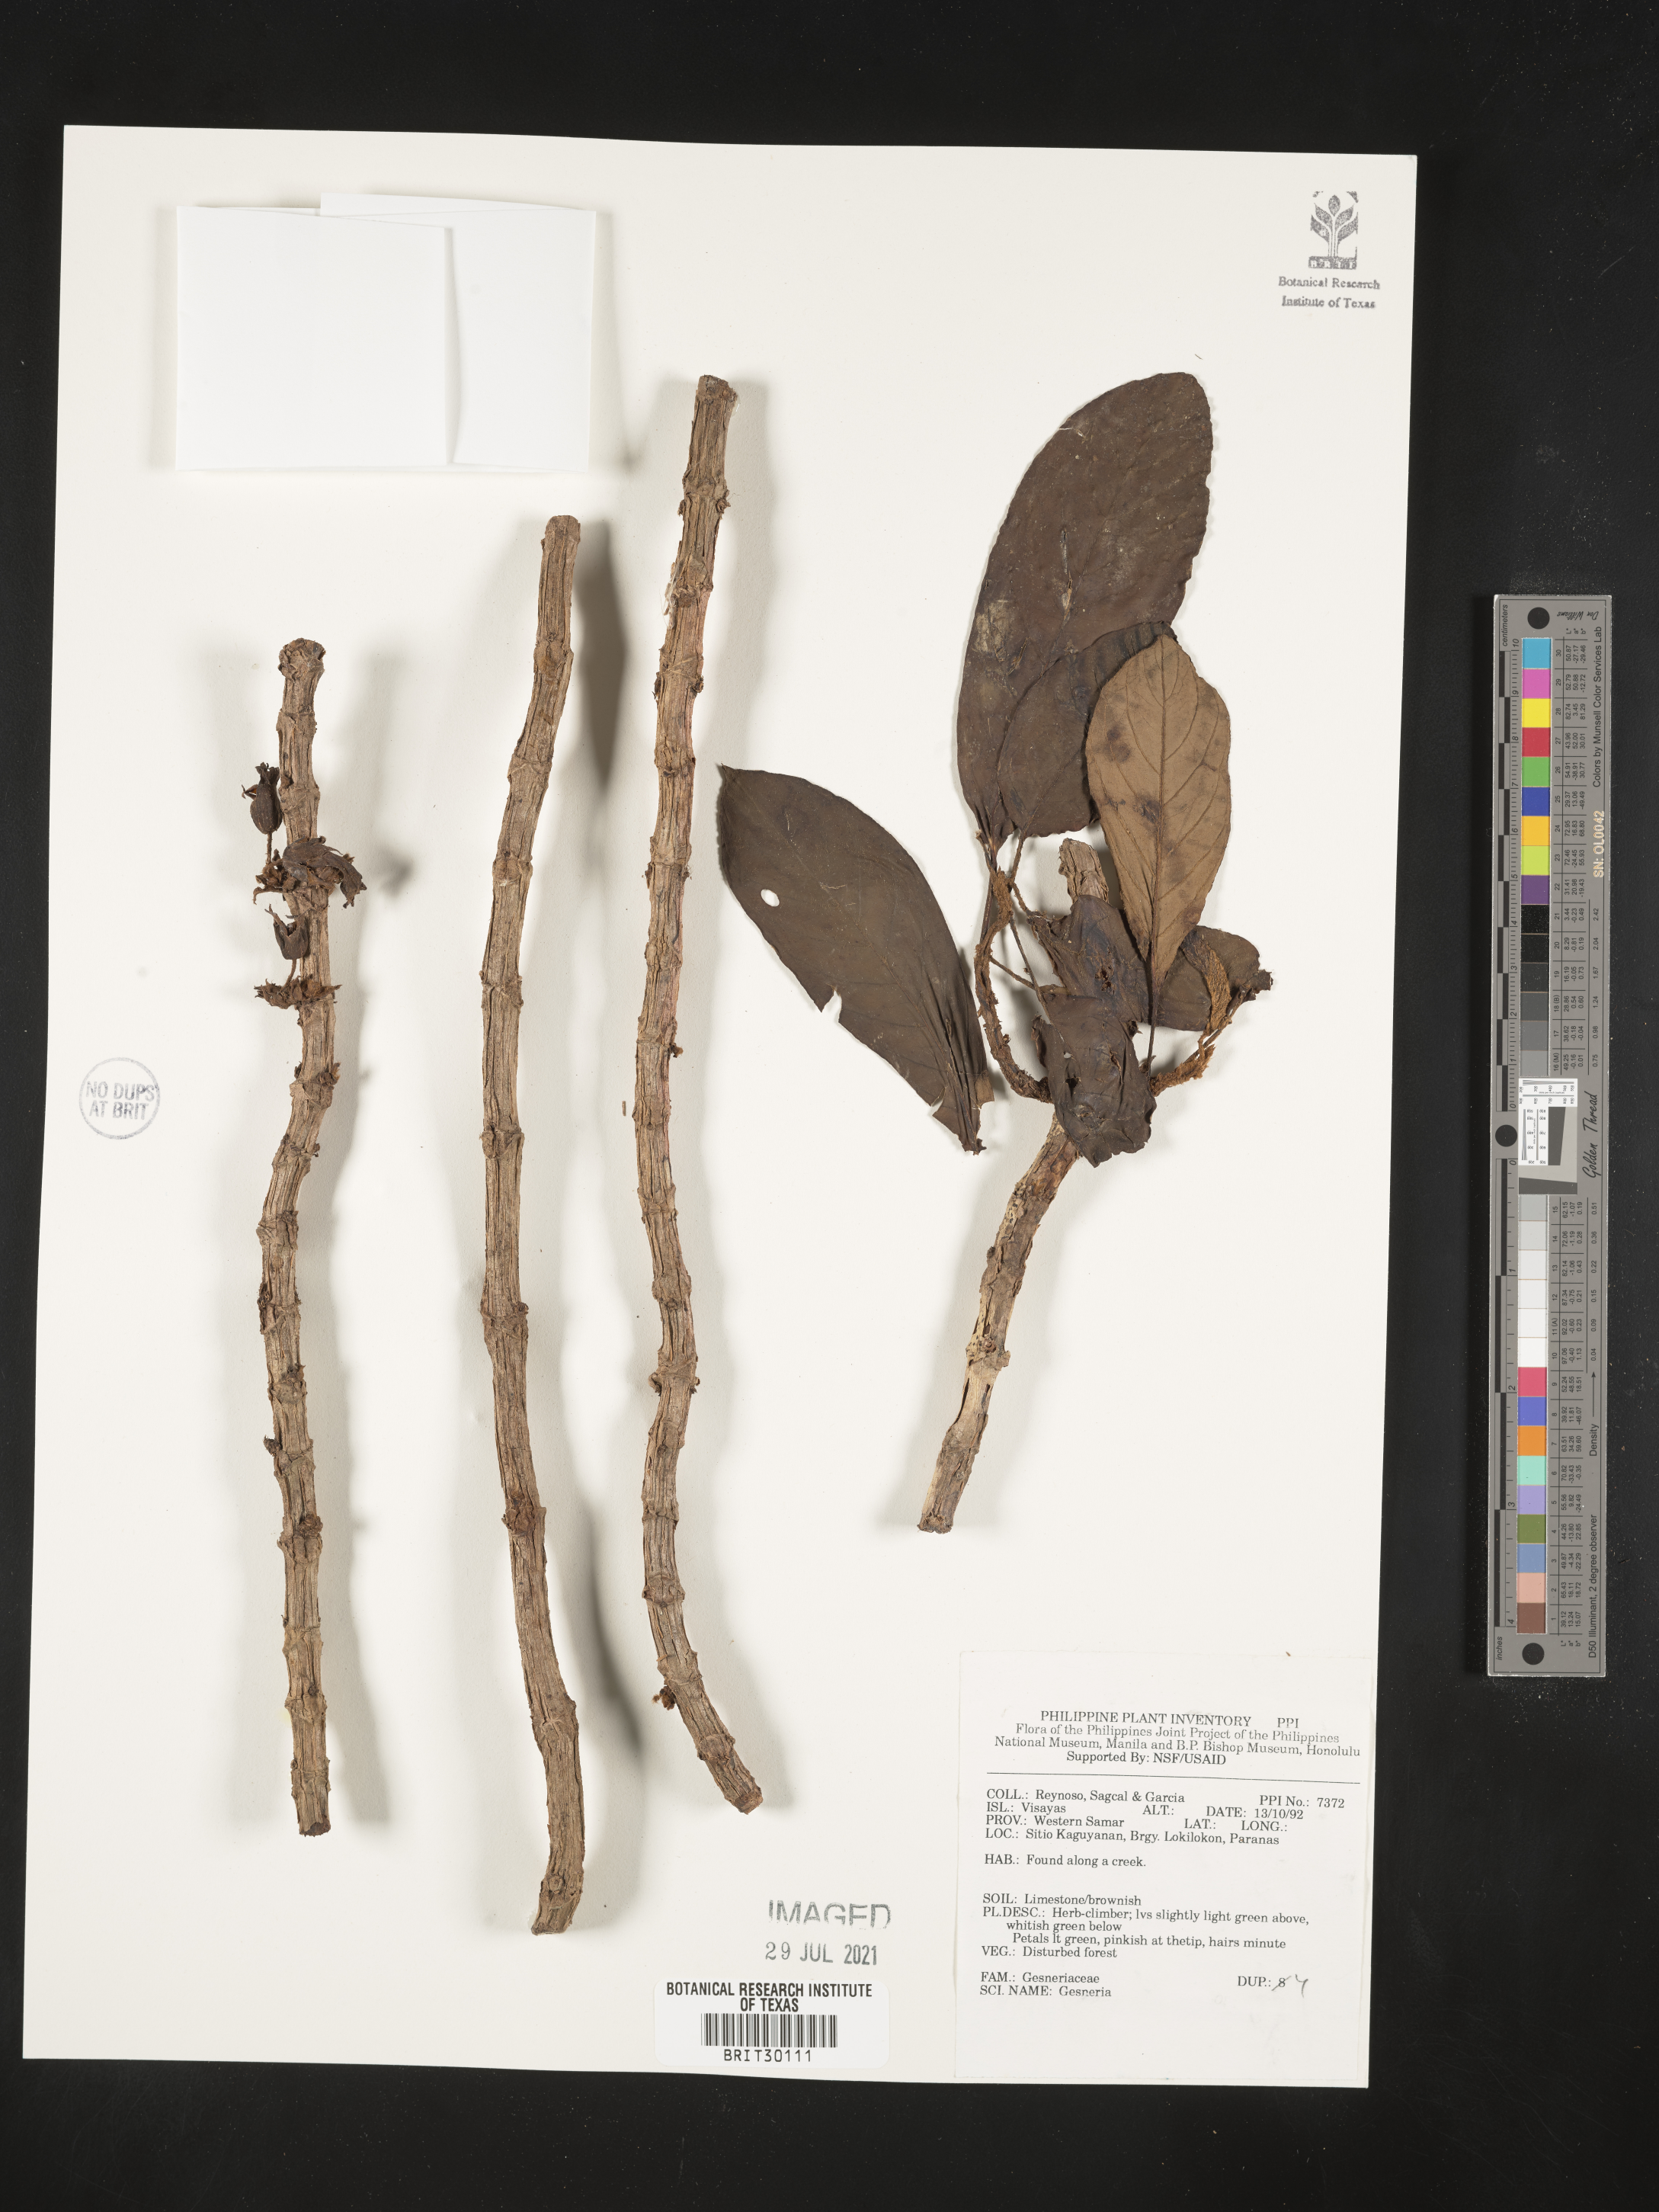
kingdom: Plantae
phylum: Tracheophyta
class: Magnoliopsida
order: Lamiales
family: Gesneriaceae
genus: Gesneria
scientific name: Gesneria
